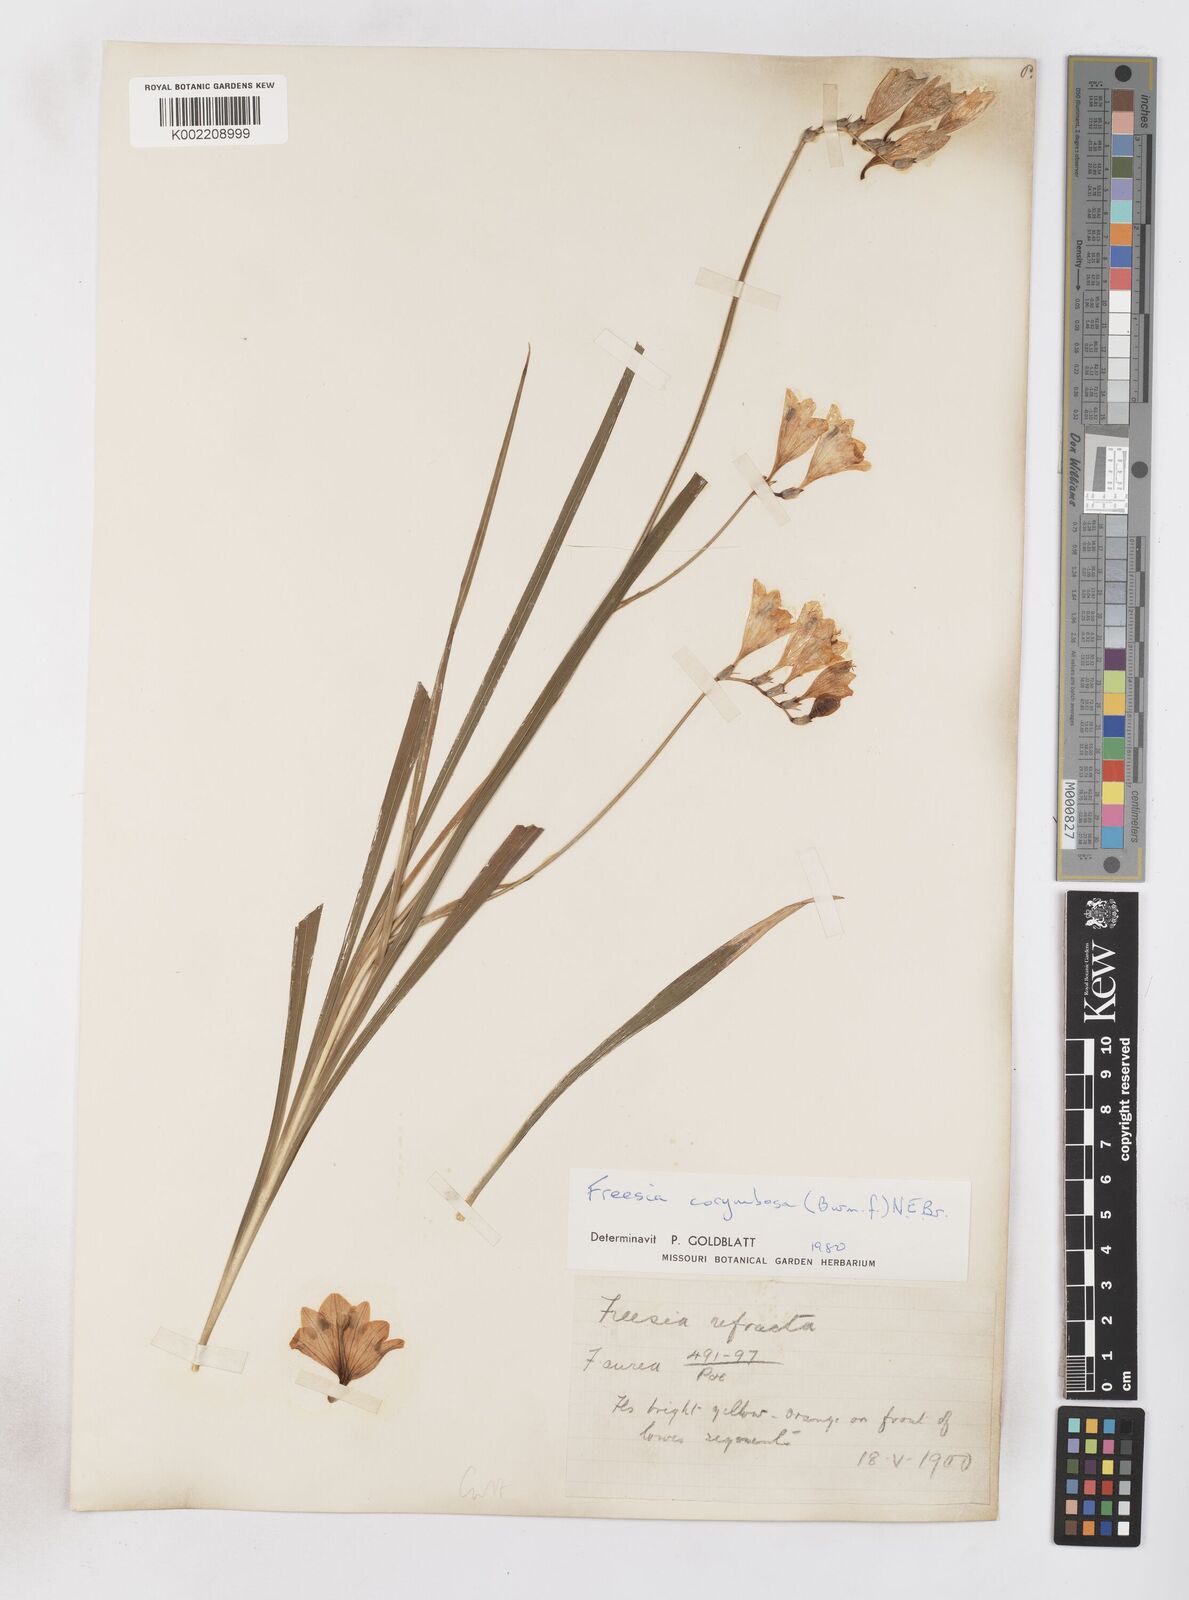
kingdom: Plantae
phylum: Tracheophyta
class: Liliopsida
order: Asparagales
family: Iridaceae
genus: Freesia
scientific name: Freesia corymbosa
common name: Common freesia
